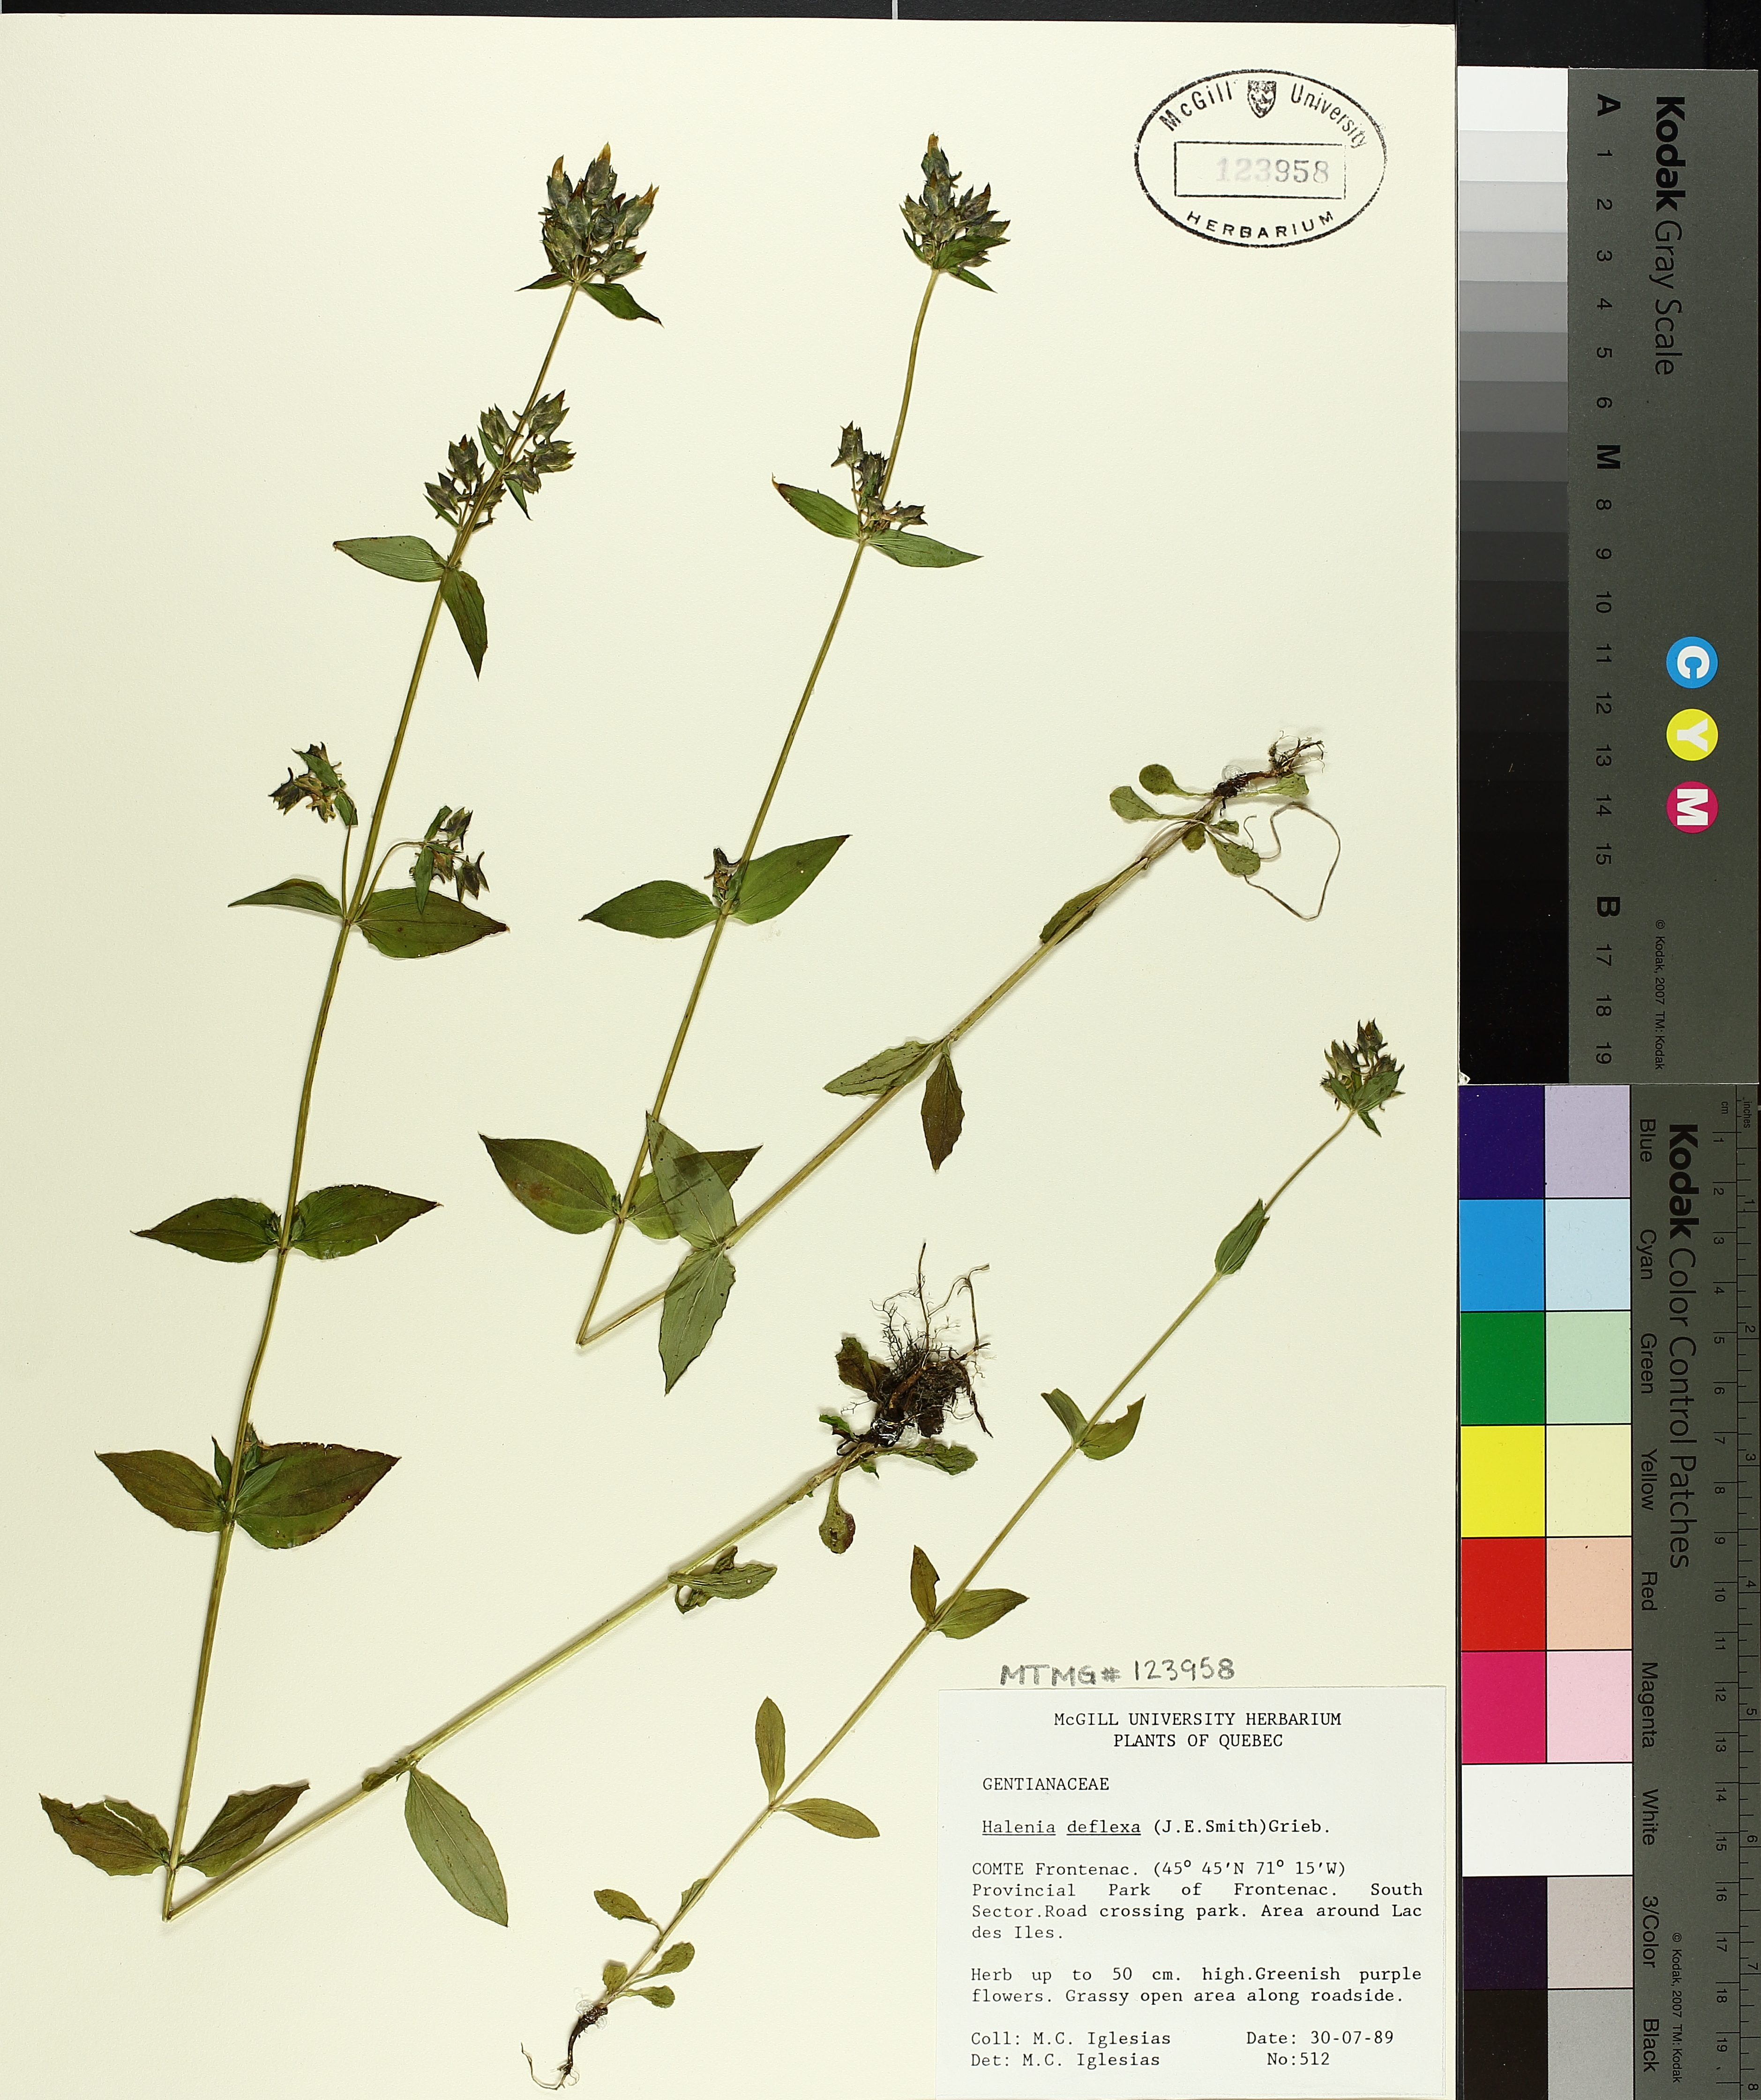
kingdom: Plantae
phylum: Tracheophyta
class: Magnoliopsida
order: Gentianales
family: Gentianaceae
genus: Halenia
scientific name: Halenia deflexa
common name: American spurred gentian
